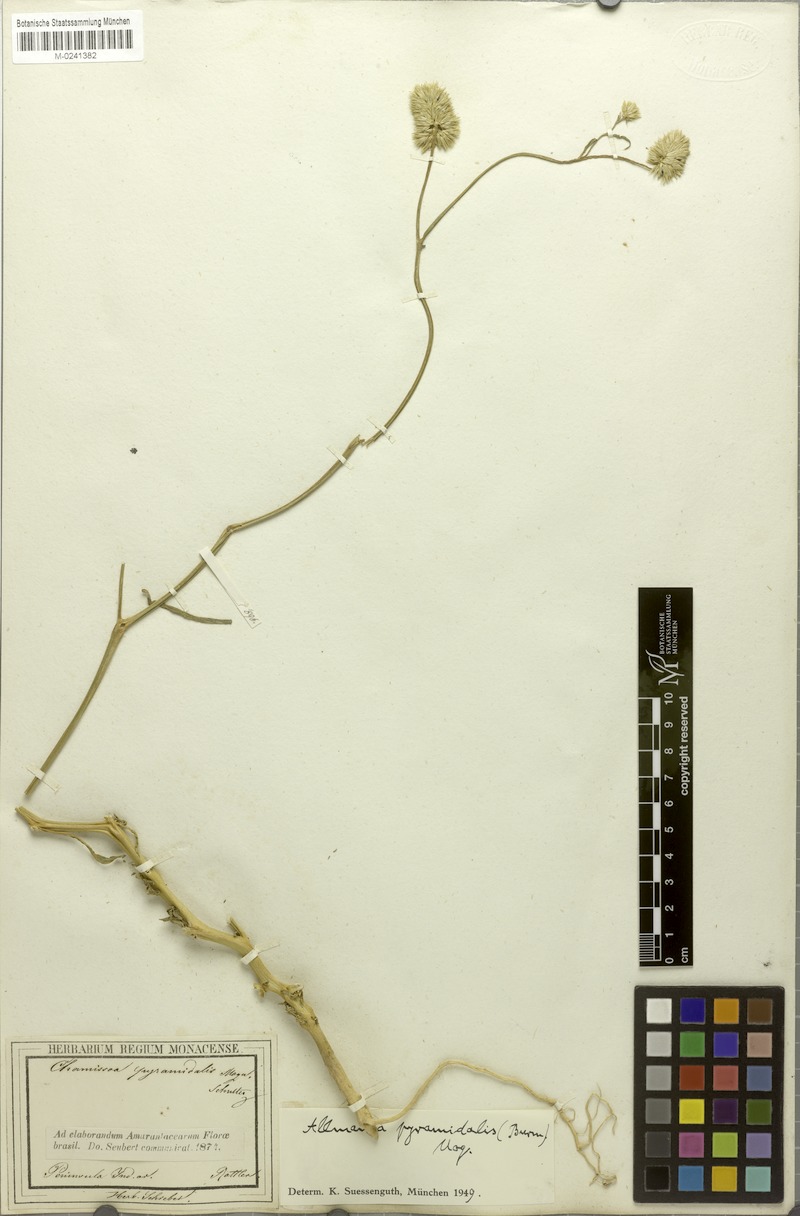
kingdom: Plantae
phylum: Tracheophyta
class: Magnoliopsida
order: Caryophyllales
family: Amaranthaceae
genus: Allmania
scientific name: Allmania nodiflora
